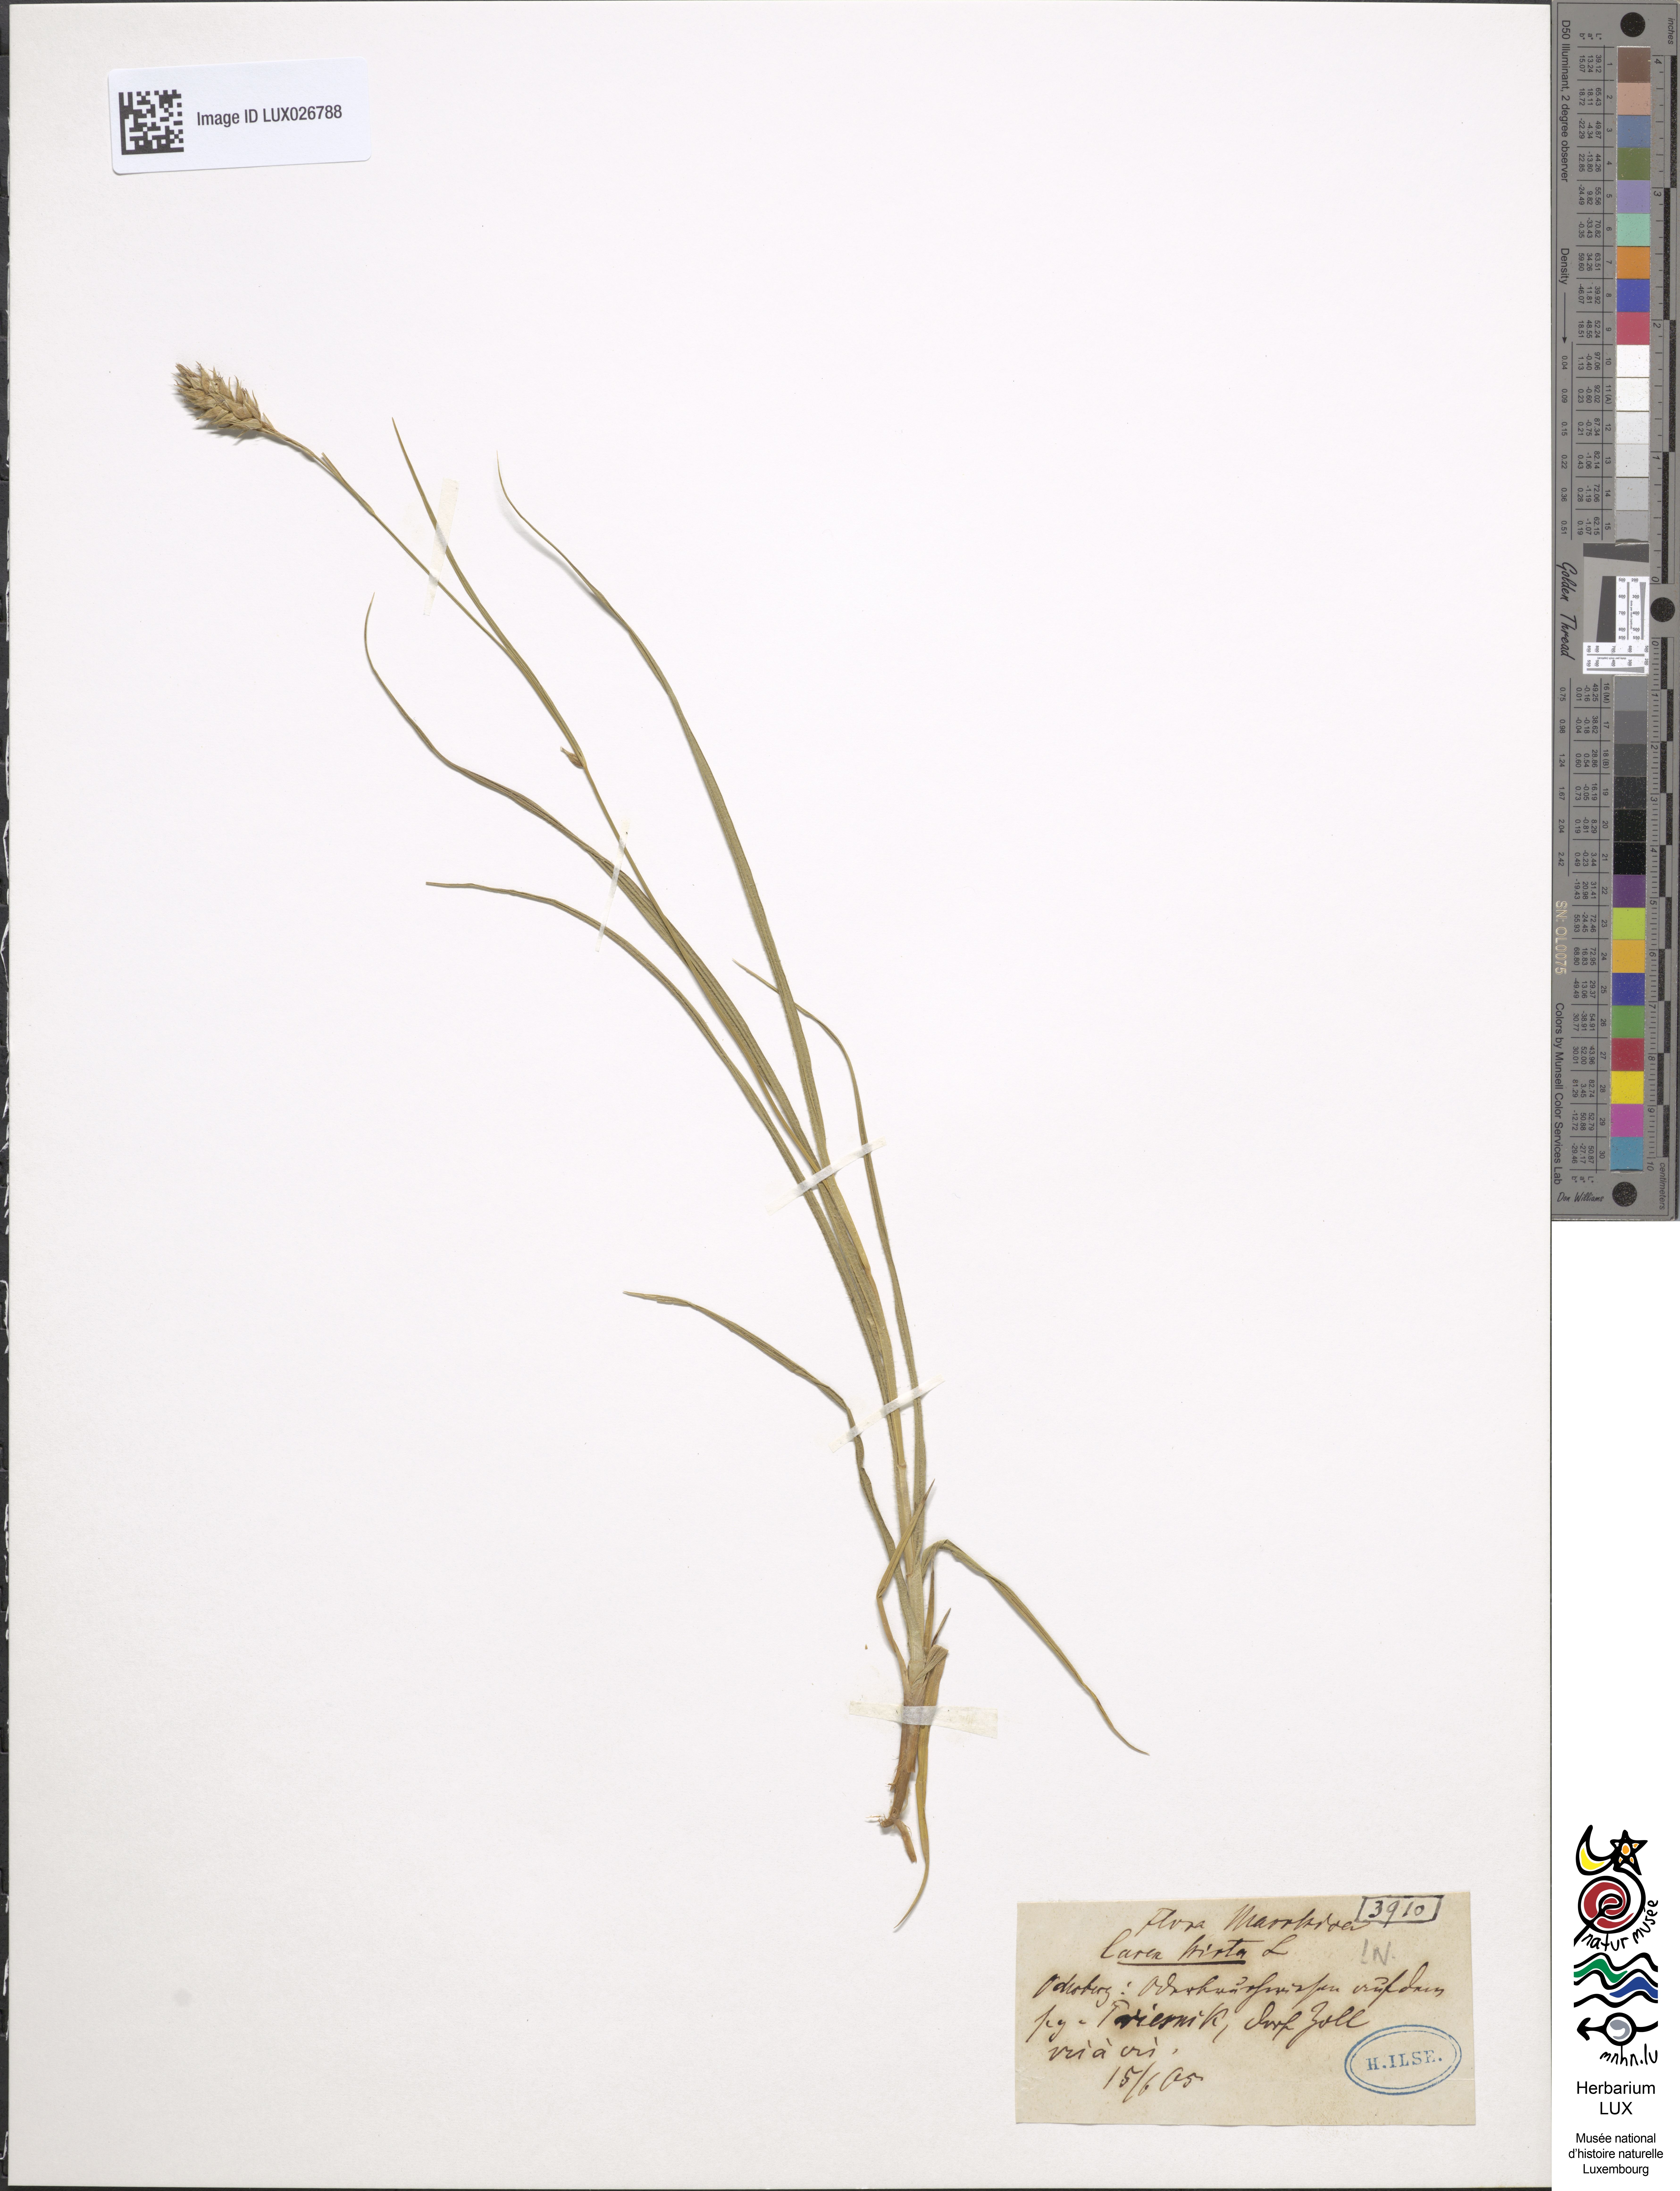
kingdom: Plantae
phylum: Tracheophyta
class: Liliopsida
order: Poales
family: Cyperaceae
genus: Carex
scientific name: Carex hirta
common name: Hairy sedge
